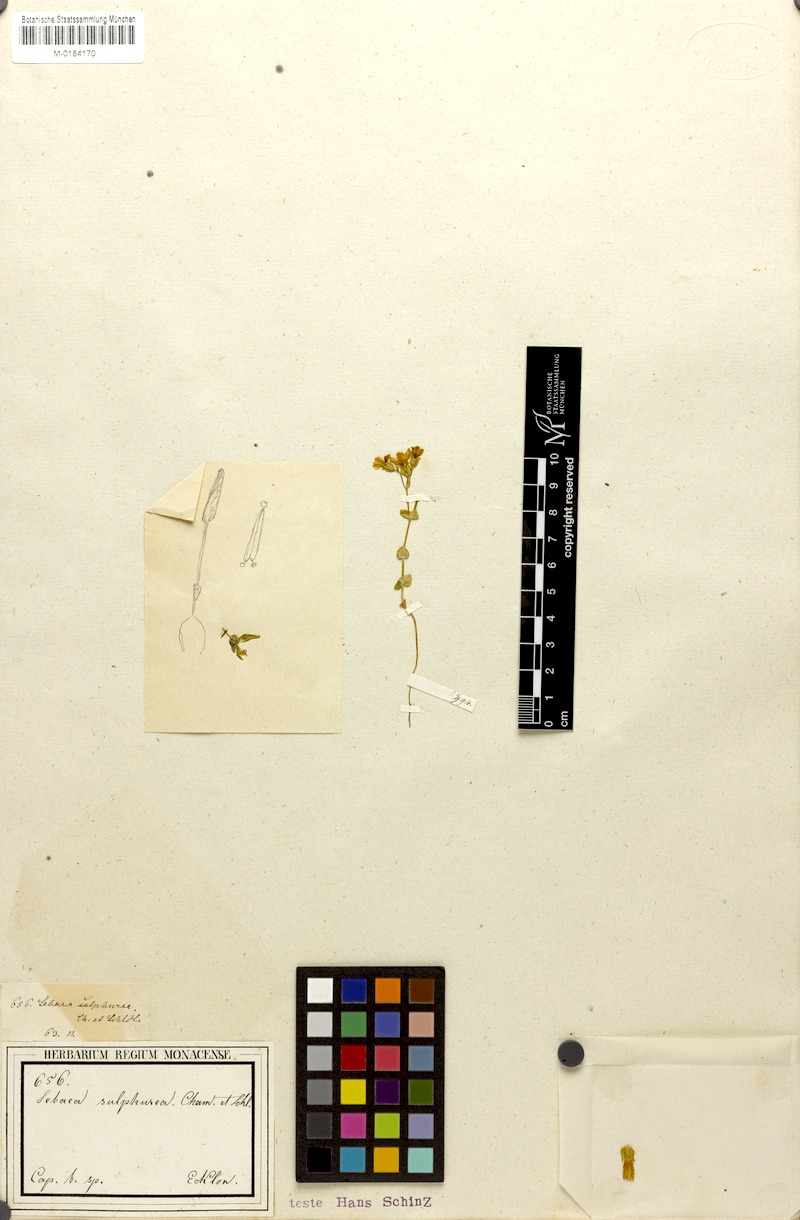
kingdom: Plantae
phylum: Tracheophyta
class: Magnoliopsida
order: Gentianales
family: Gentianaceae
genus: Sebaea
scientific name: Sebaea sulphurea
